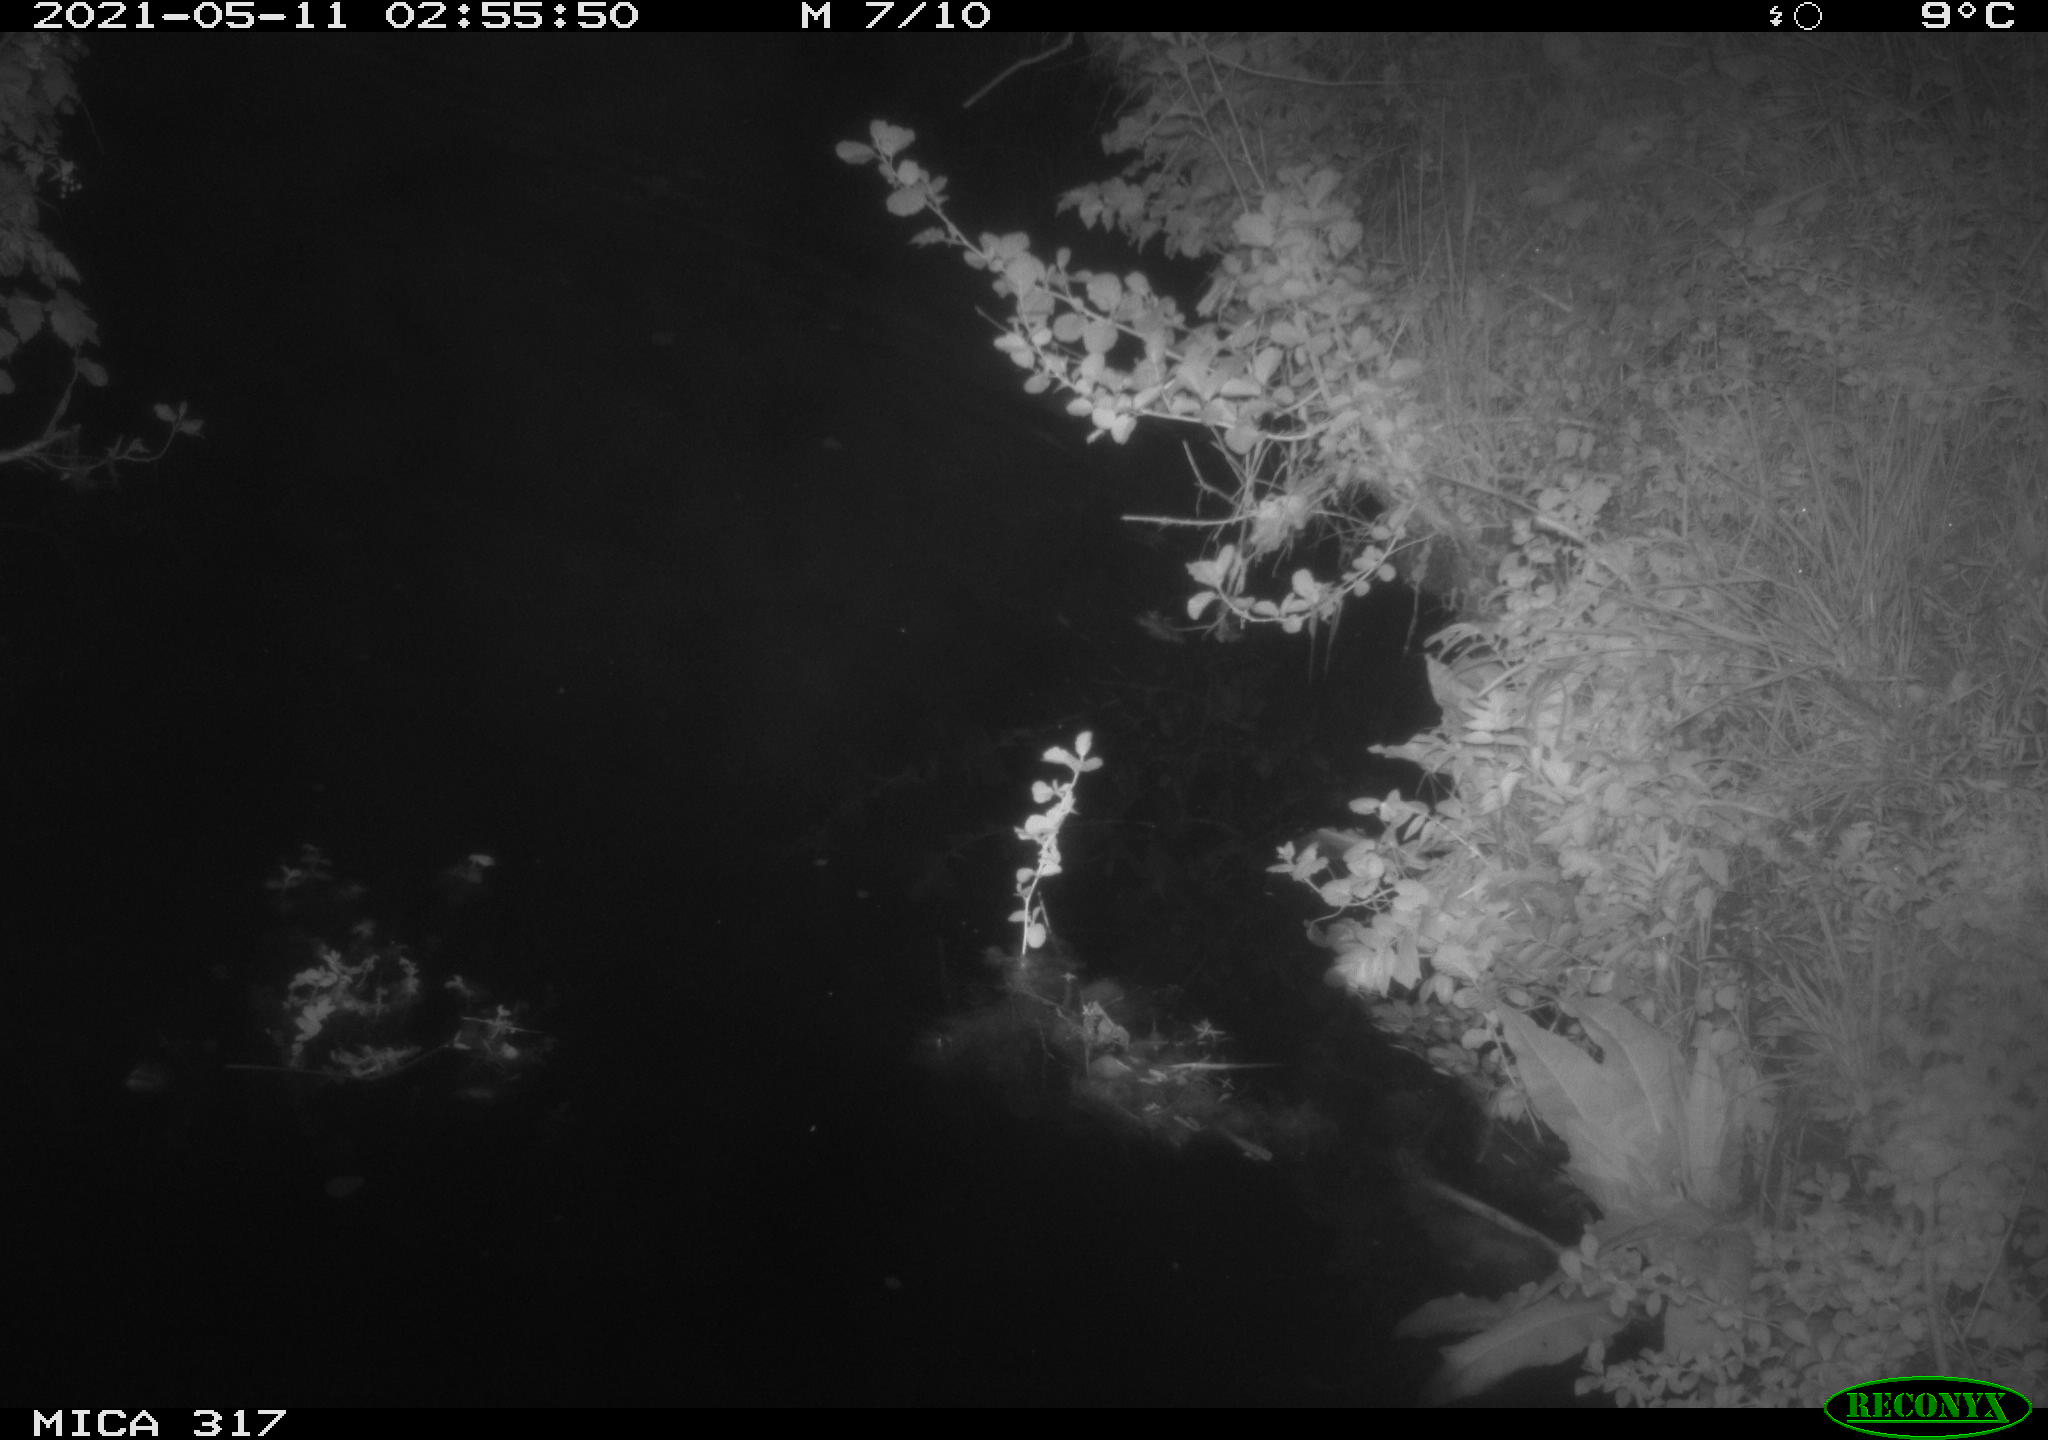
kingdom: Animalia
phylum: Chordata
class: Aves
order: Anseriformes
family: Anatidae
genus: Anas
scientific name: Anas
